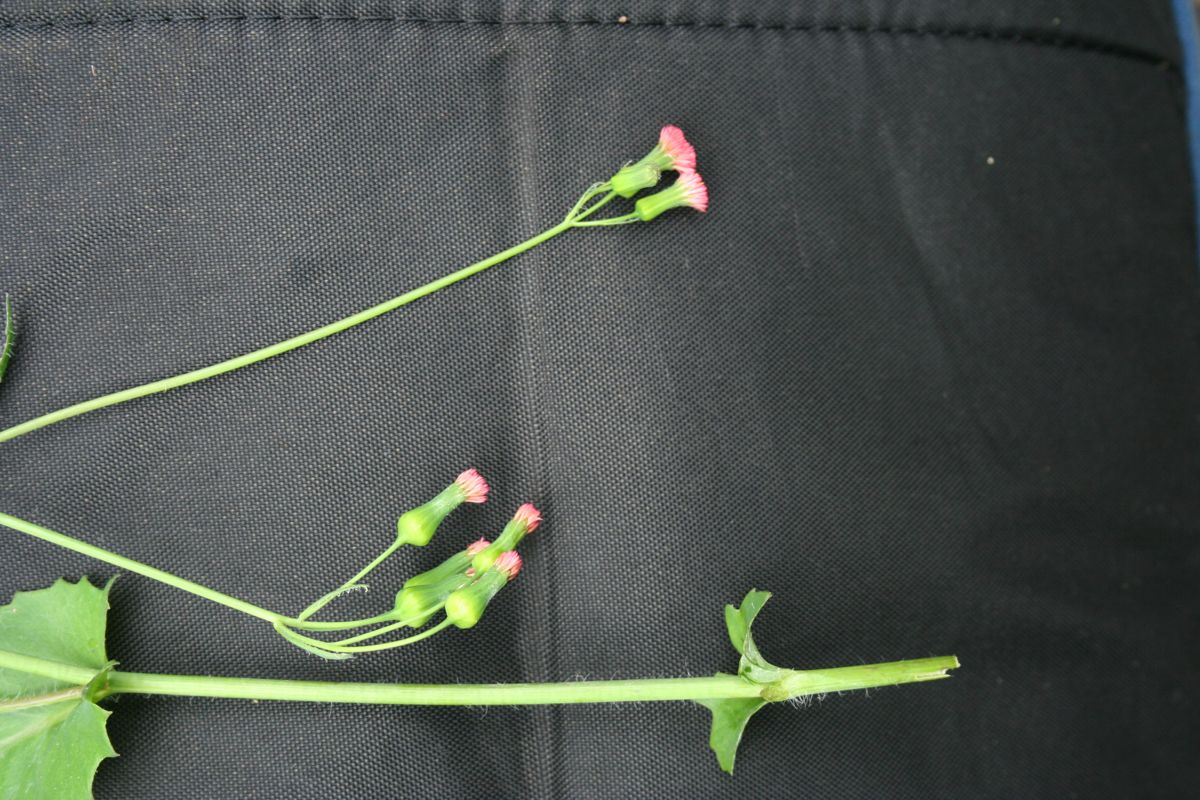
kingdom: Plantae
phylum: Tracheophyta
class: Magnoliopsida
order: Asterales
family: Asteraceae
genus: Emilia
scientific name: Emilia fosbergii
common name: Florida tasselflower
